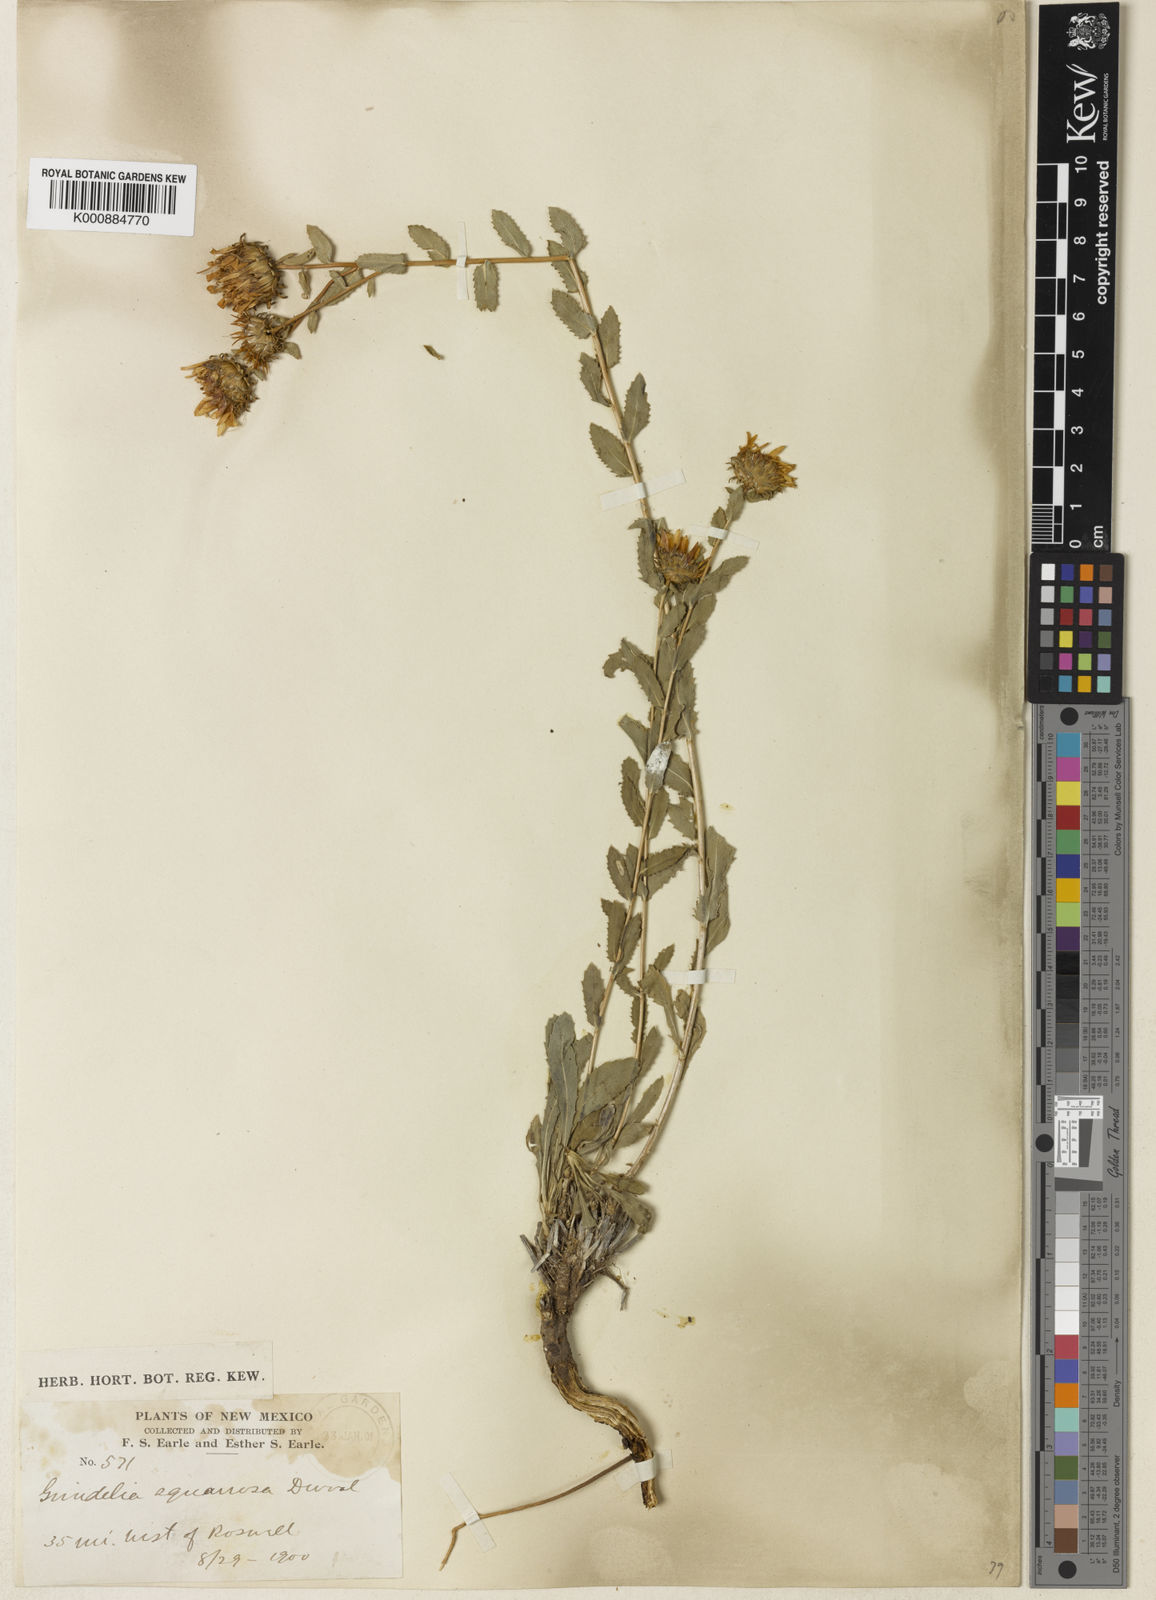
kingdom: Plantae
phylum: Tracheophyta
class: Magnoliopsida
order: Asterales
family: Asteraceae
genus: Grindelia
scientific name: Grindelia havardii
